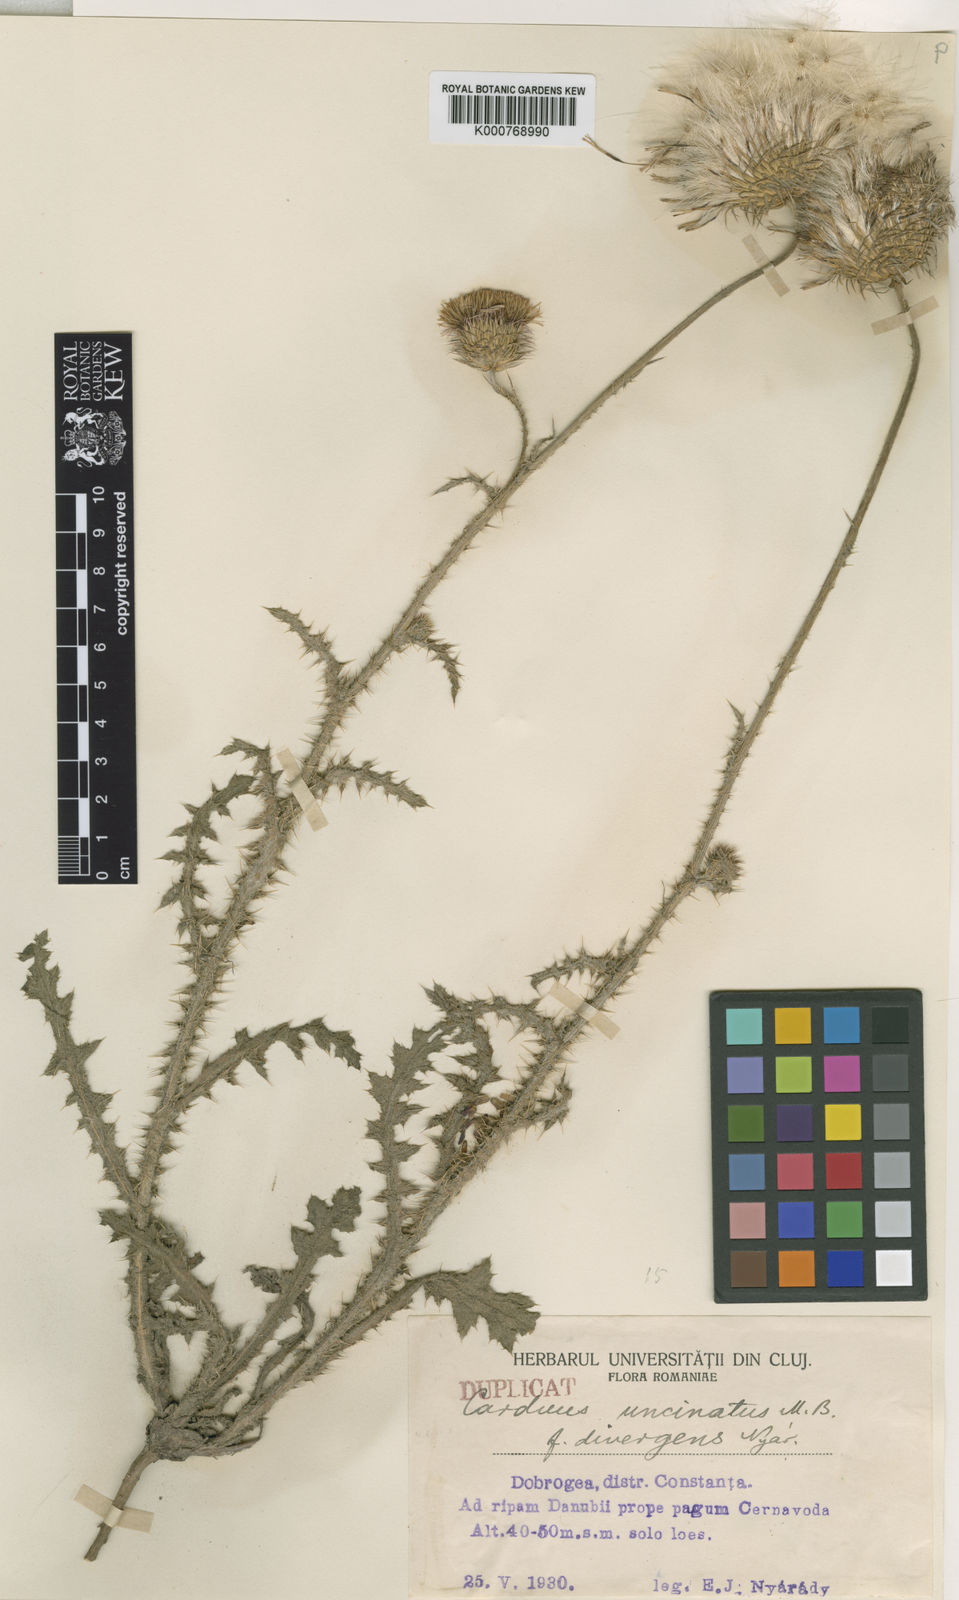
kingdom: Plantae
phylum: Tracheophyta
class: Magnoliopsida
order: Asterales
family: Asteraceae
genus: Carduus
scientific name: Carduus uncinatus
